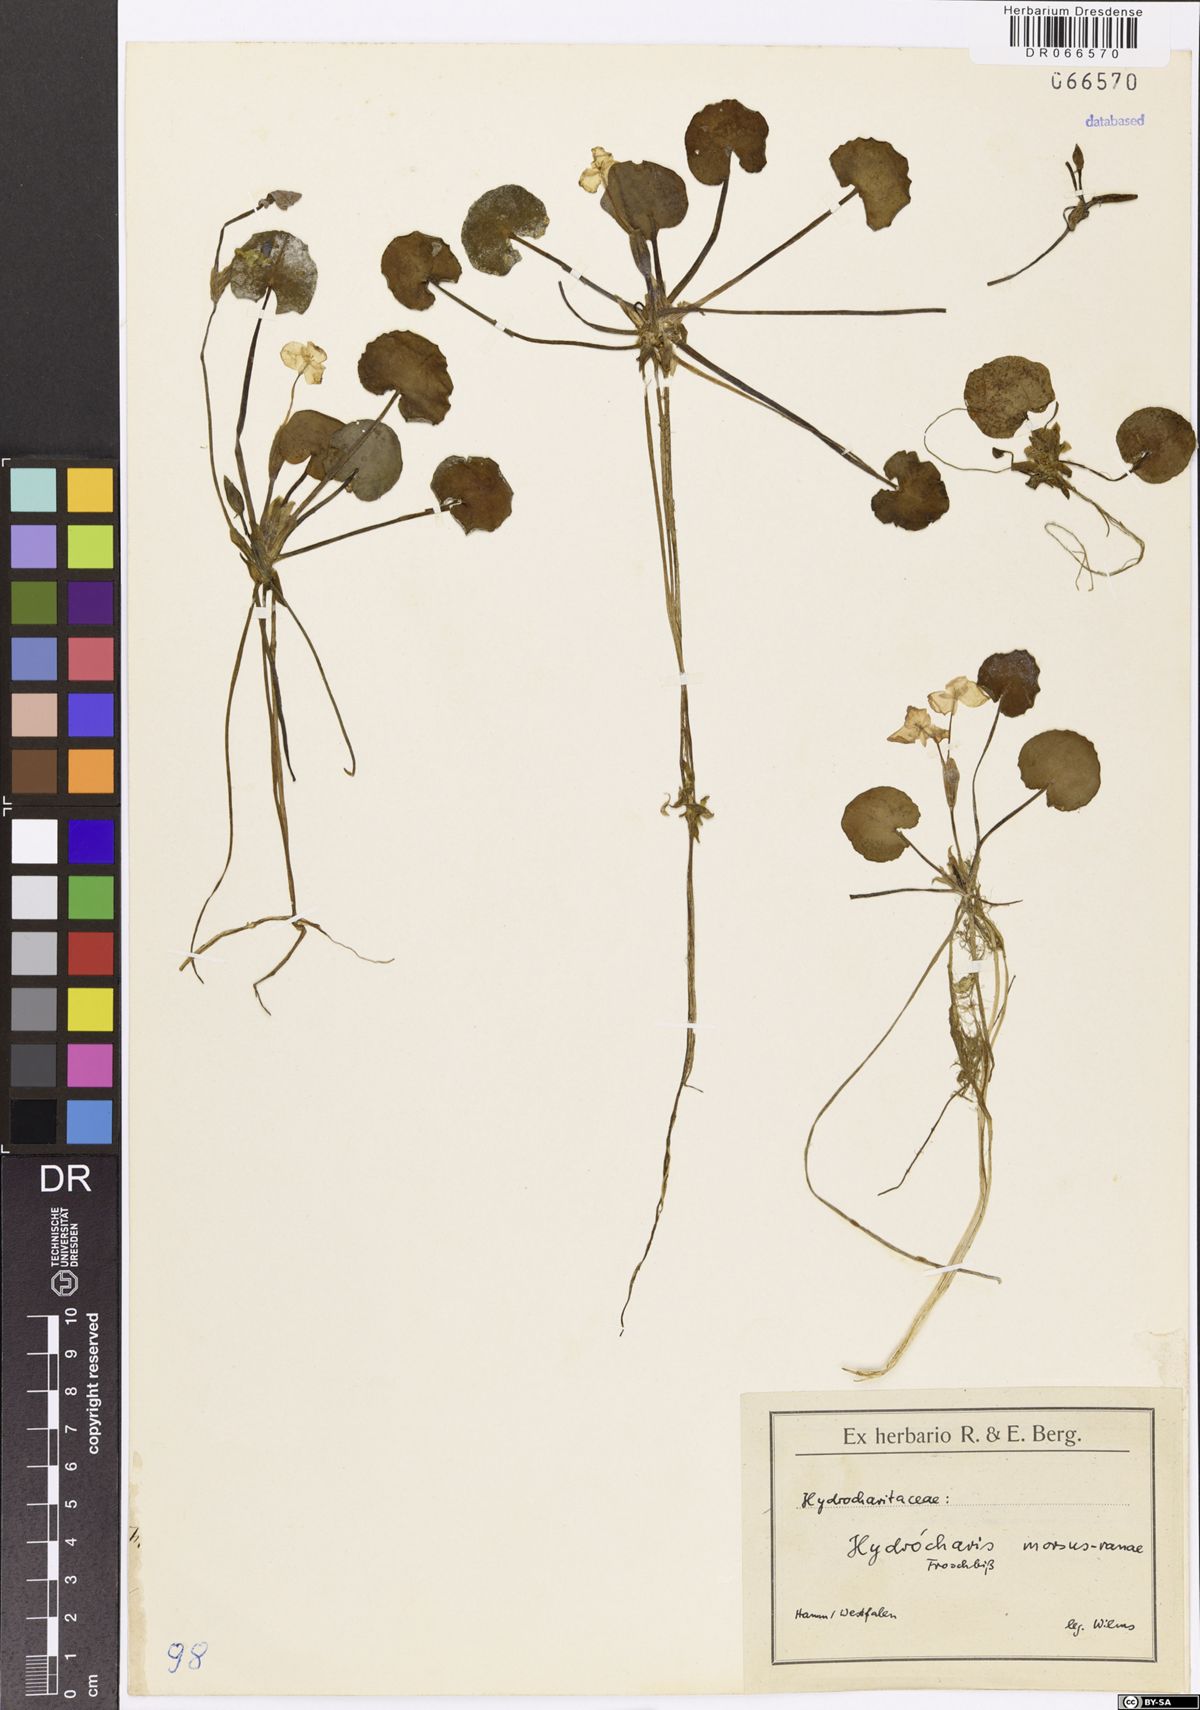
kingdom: Plantae
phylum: Tracheophyta
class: Liliopsida
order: Alismatales
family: Hydrocharitaceae
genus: Hydrocharis
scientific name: Hydrocharis morsus-ranae
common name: Frogbit
